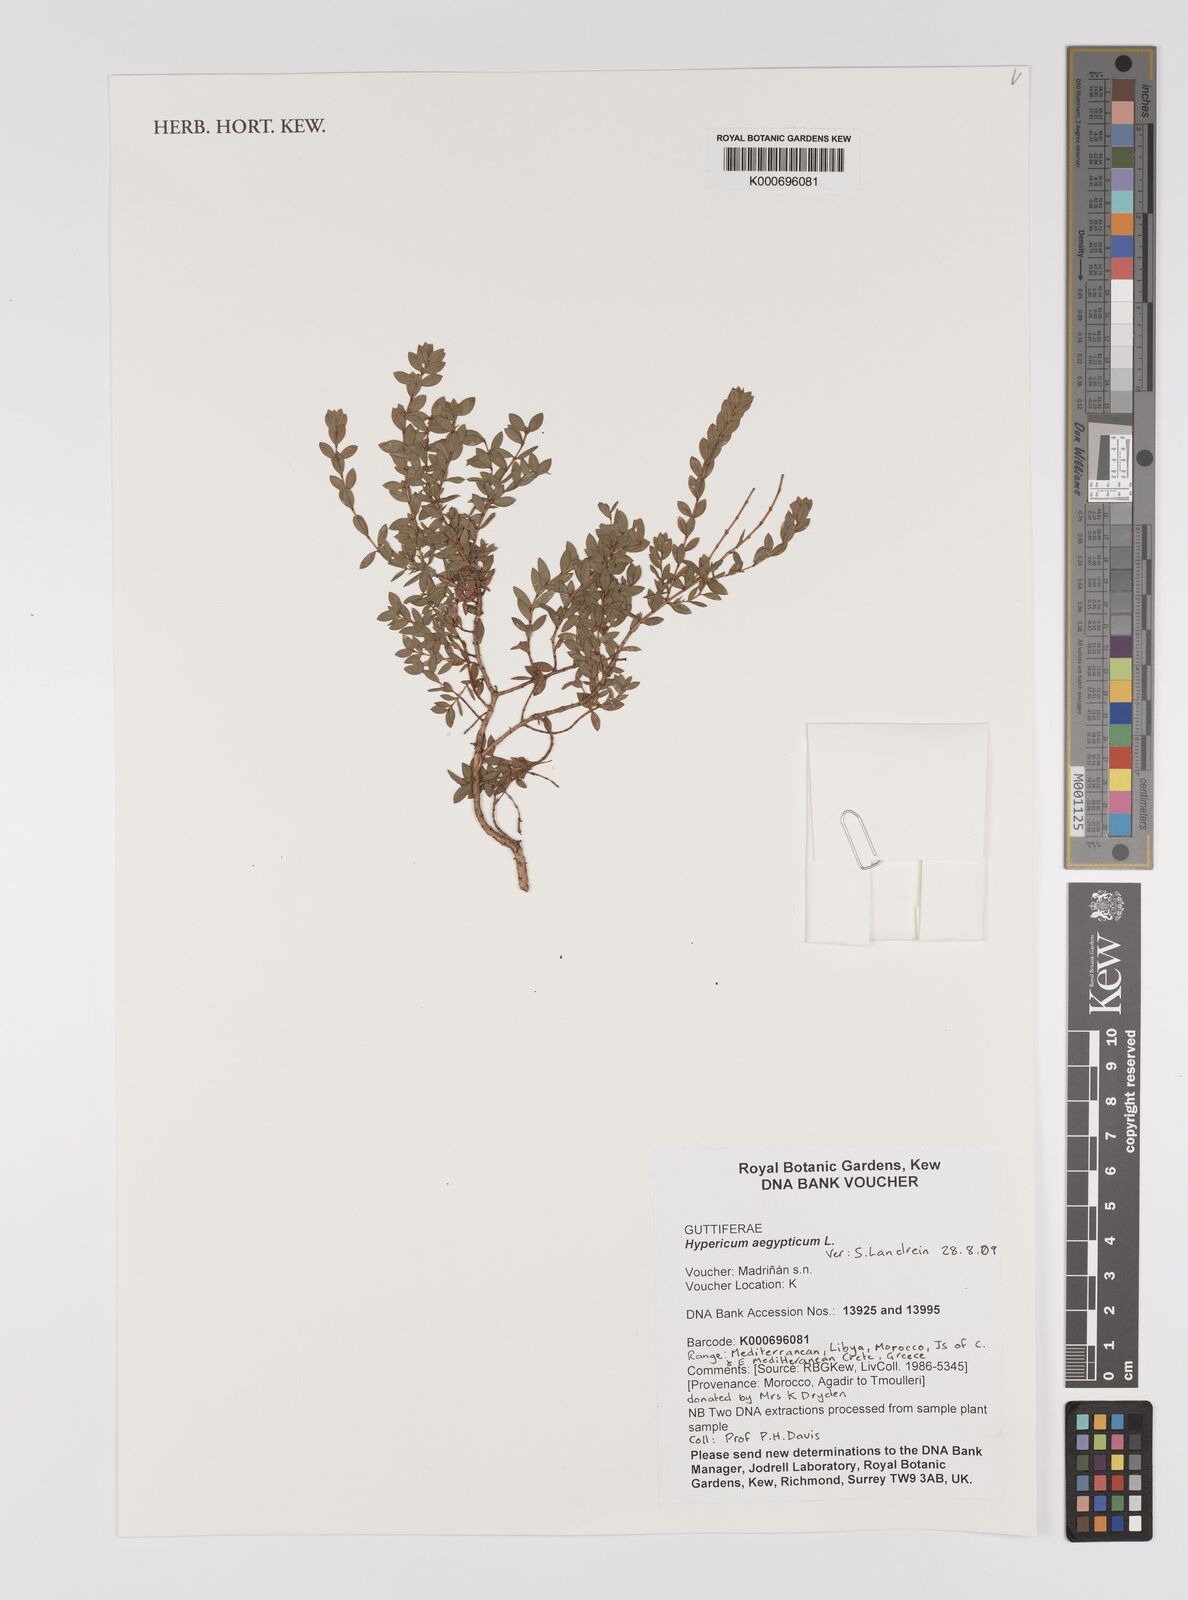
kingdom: Plantae
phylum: Tracheophyta
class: Magnoliopsida
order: Malpighiales
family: Hypericaceae
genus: Hypericum
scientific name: Hypericum aegypticum
